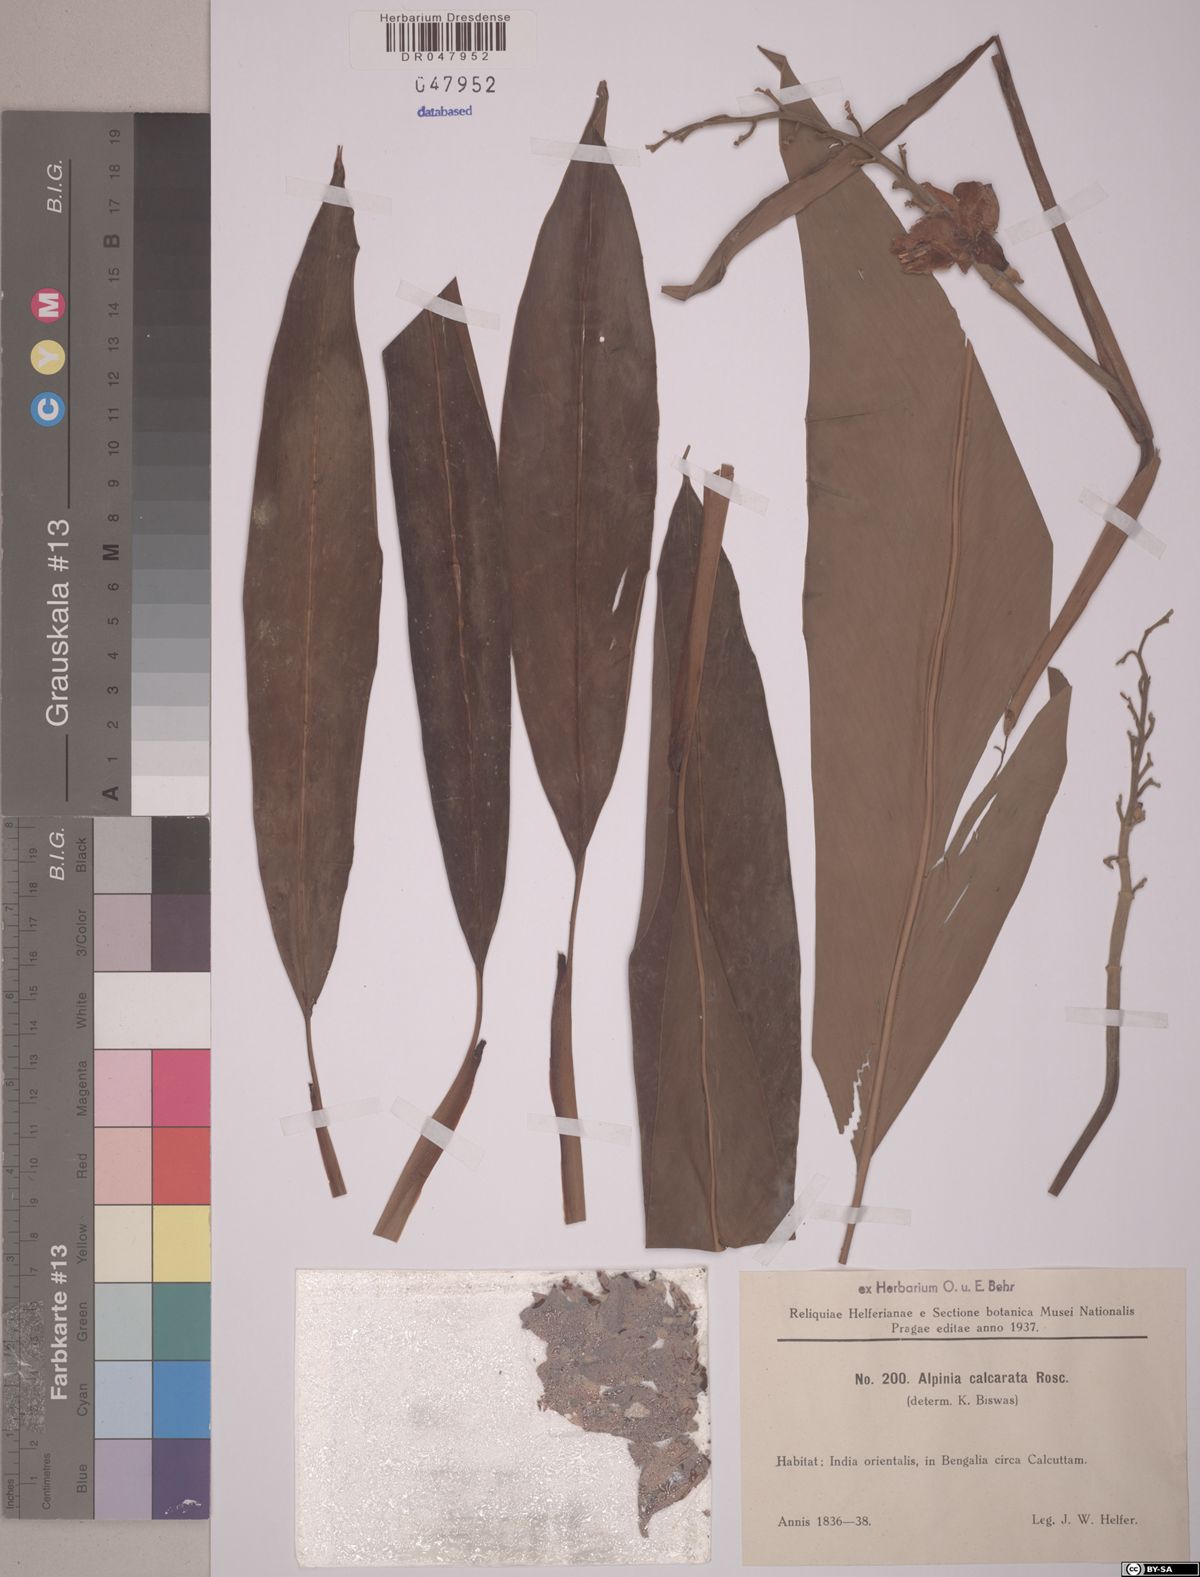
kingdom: Plantae
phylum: Tracheophyta
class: Liliopsida
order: Zingiberales
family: Zingiberaceae
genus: Alpinia
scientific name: Alpinia calcarata
